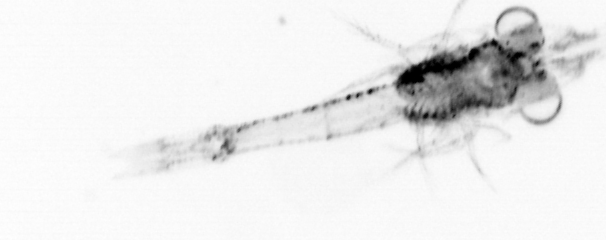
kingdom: Animalia
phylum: Arthropoda
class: Malacostraca
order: Decapoda
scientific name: Decapoda
